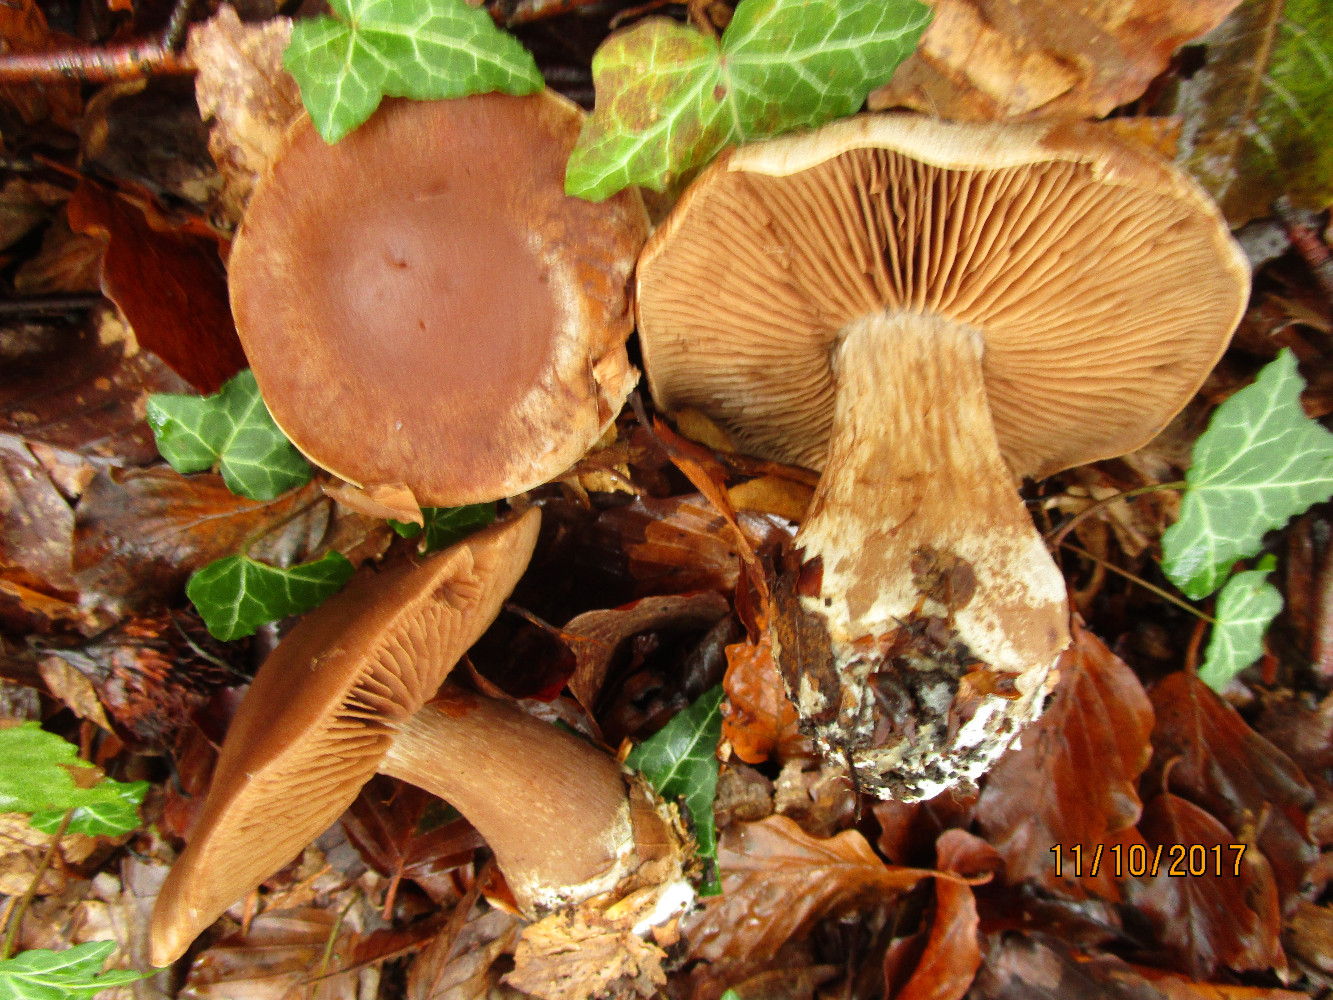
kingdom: Fungi
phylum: Basidiomycota
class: Agaricomycetes
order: Agaricales
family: Cortinariaceae
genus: Cortinarius
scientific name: Cortinarius
